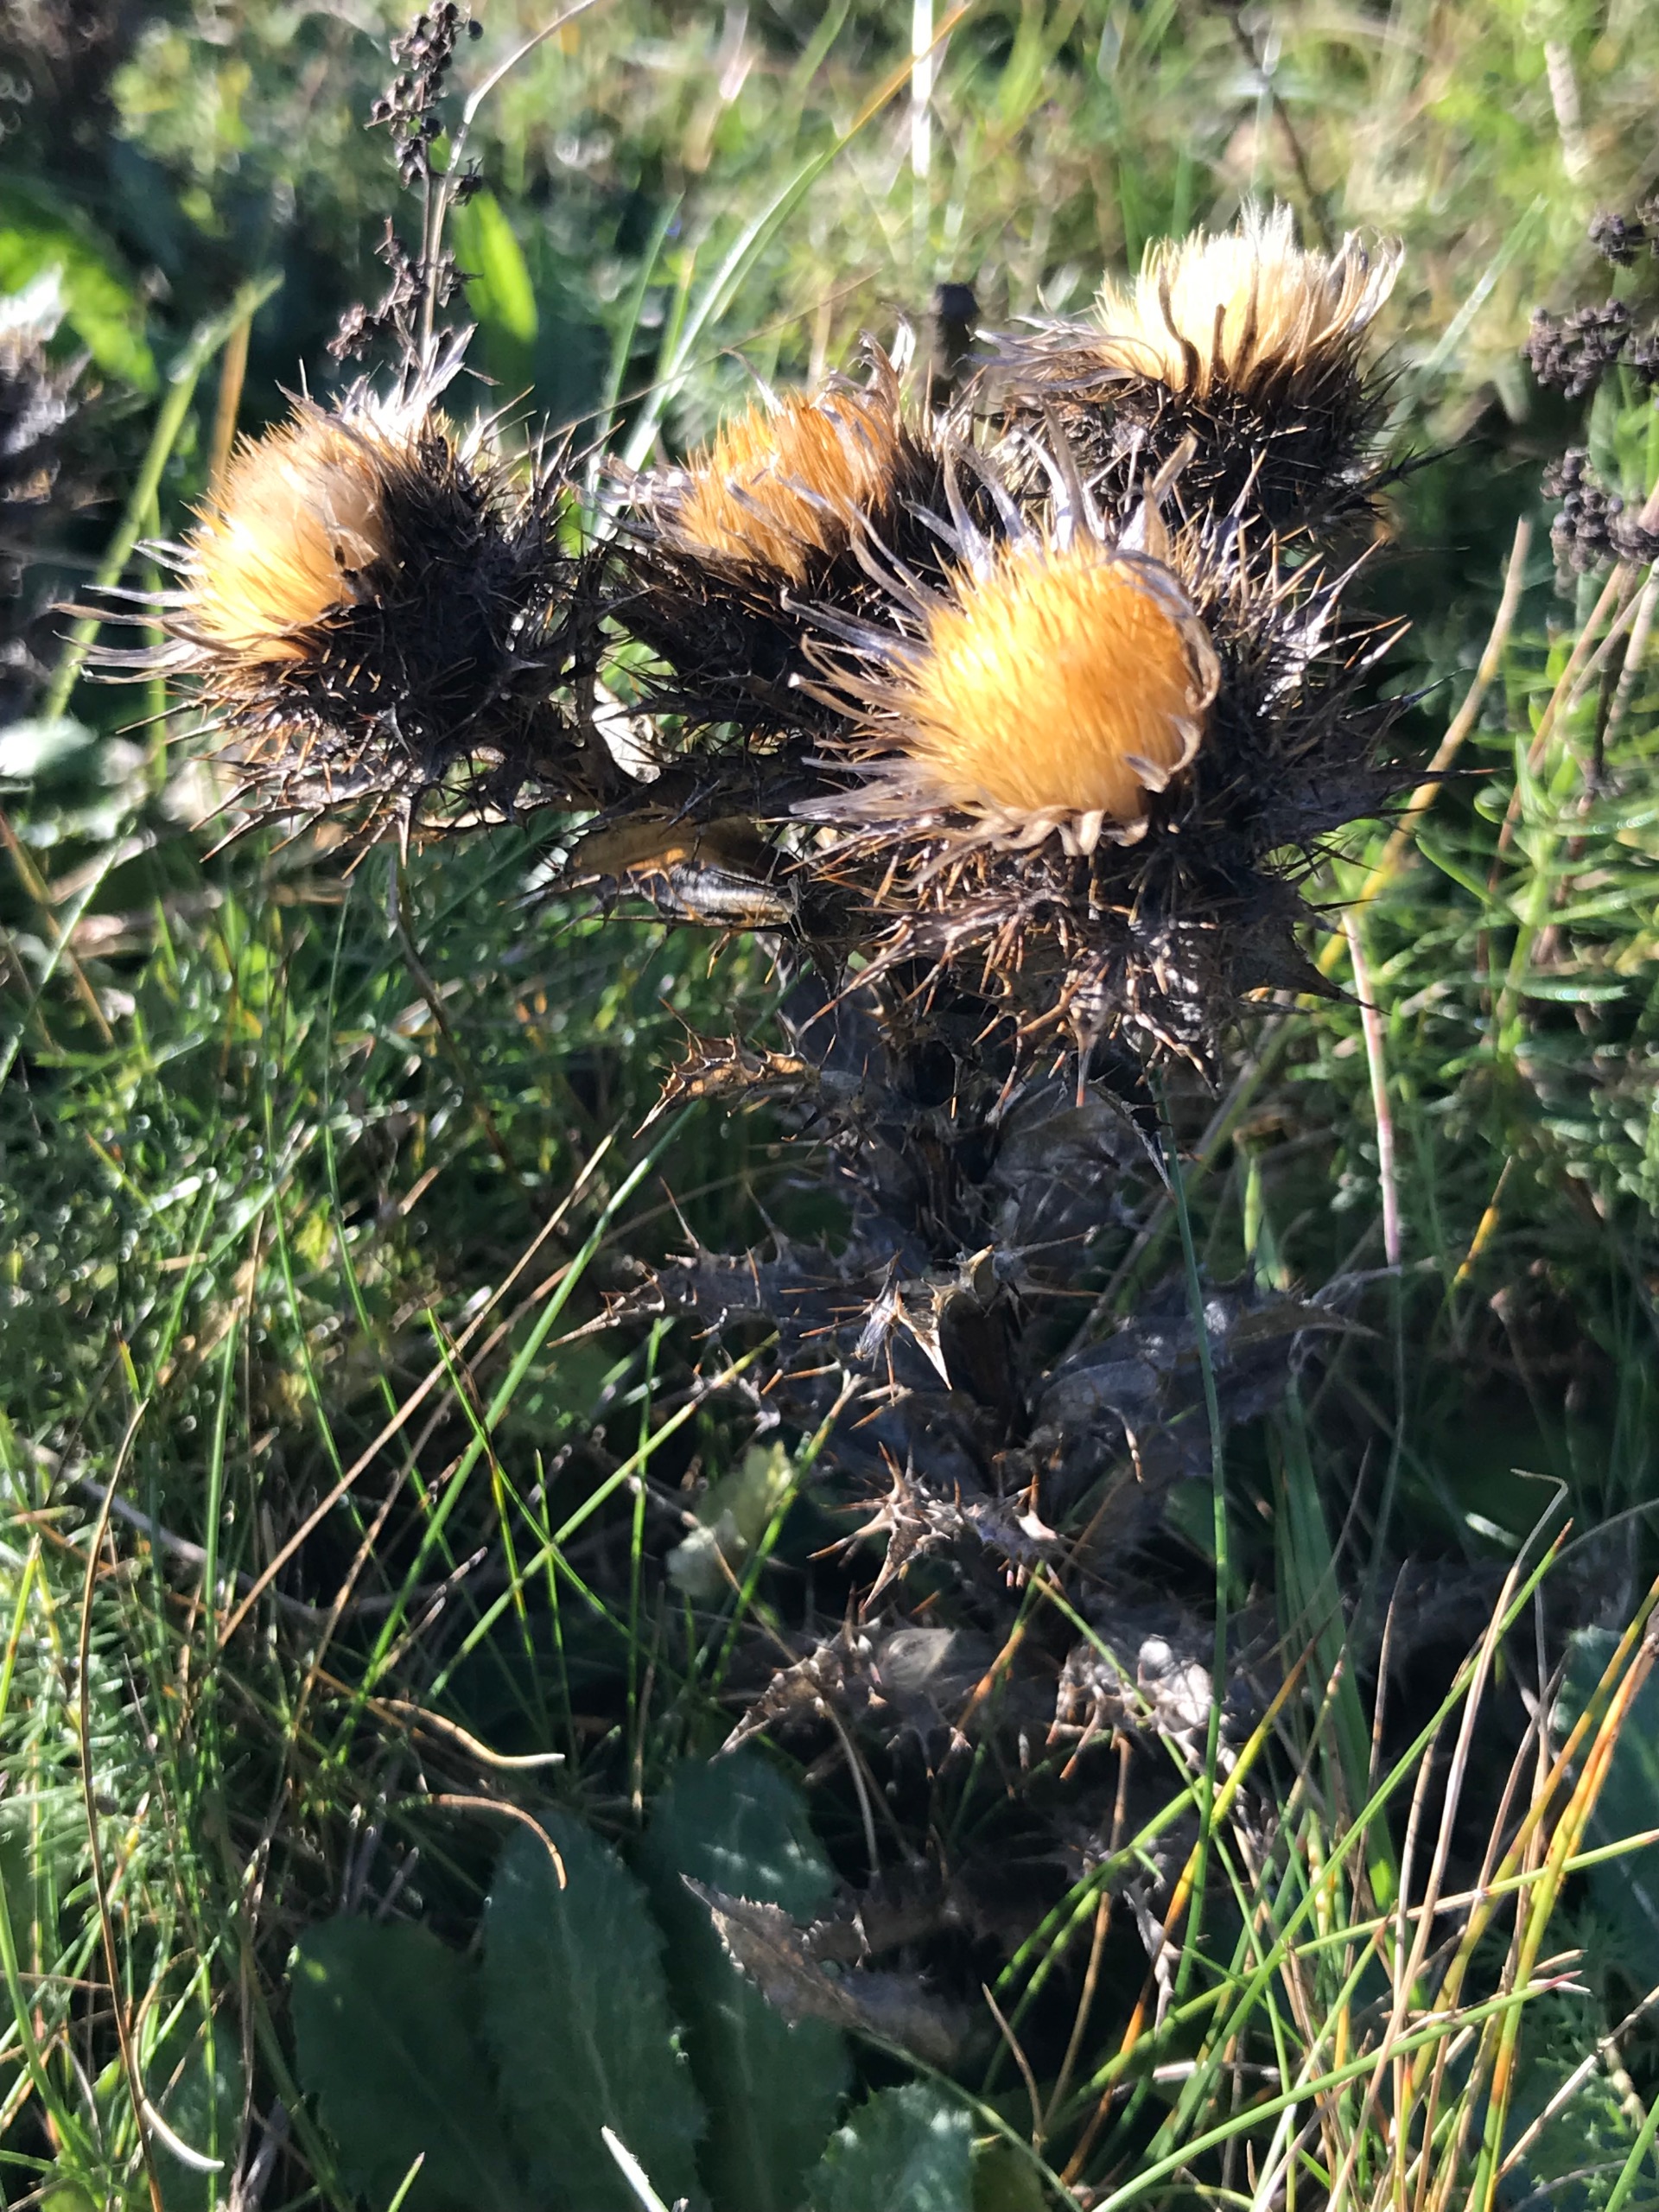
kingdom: Plantae
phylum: Tracheophyta
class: Magnoliopsida
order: Asterales
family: Asteraceae
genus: Carlina
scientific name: Carlina vulgaris
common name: Bakketidsel
